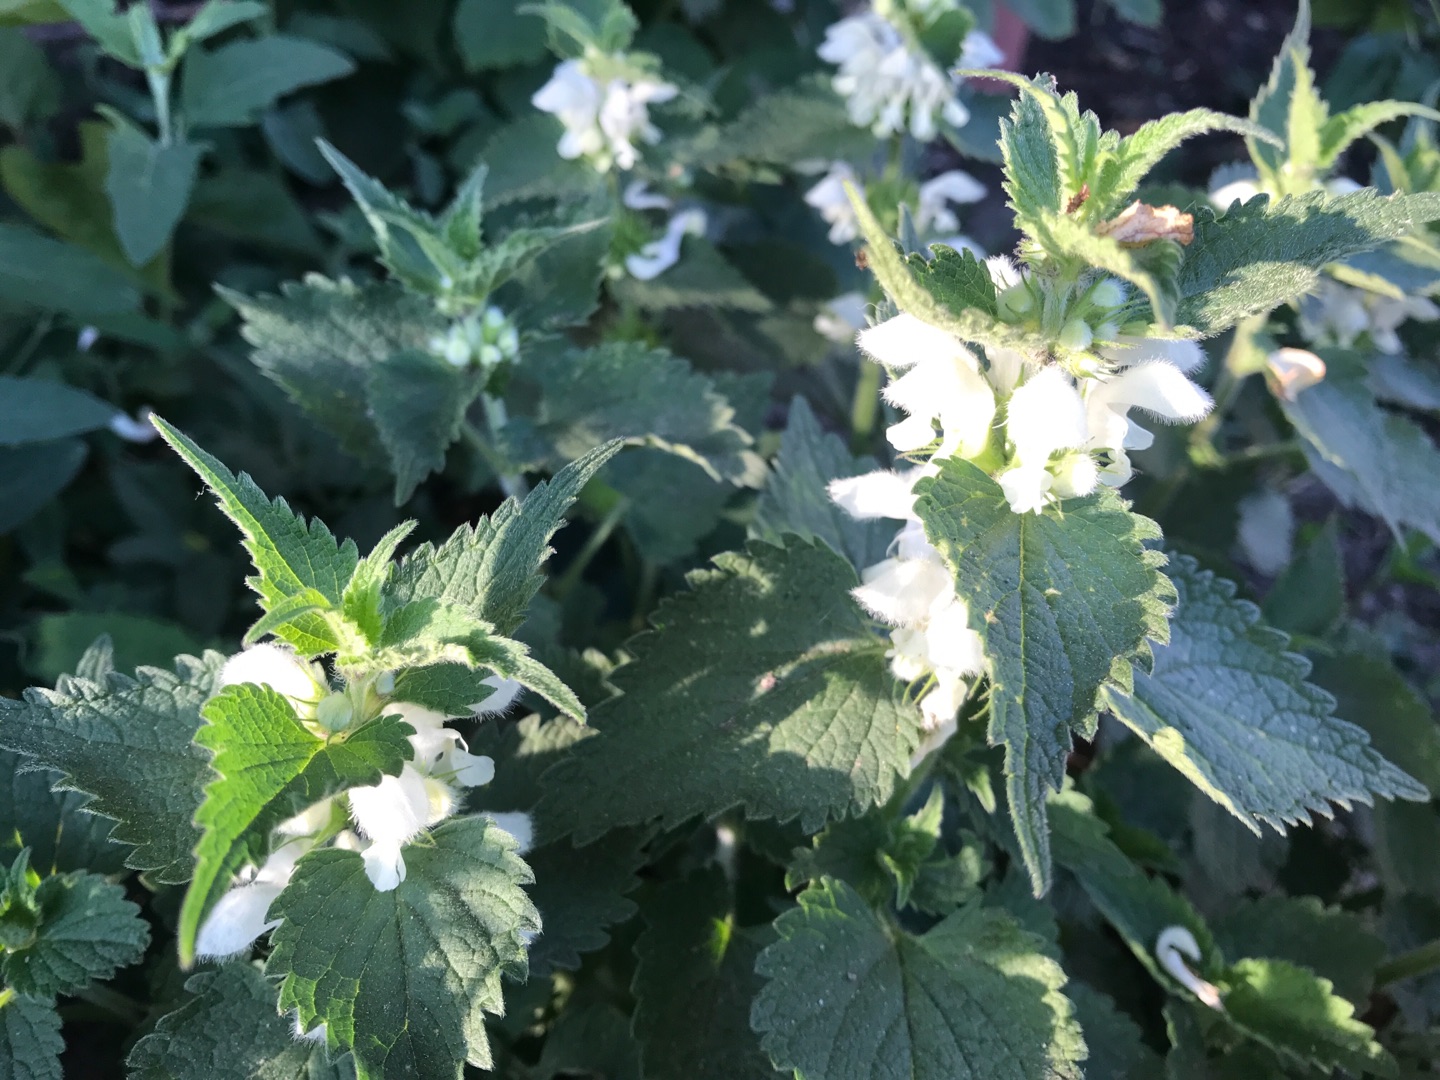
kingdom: Plantae
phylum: Tracheophyta
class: Magnoliopsida
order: Lamiales
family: Lamiaceae
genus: Lamium
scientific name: Lamium album
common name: Døvnælde
